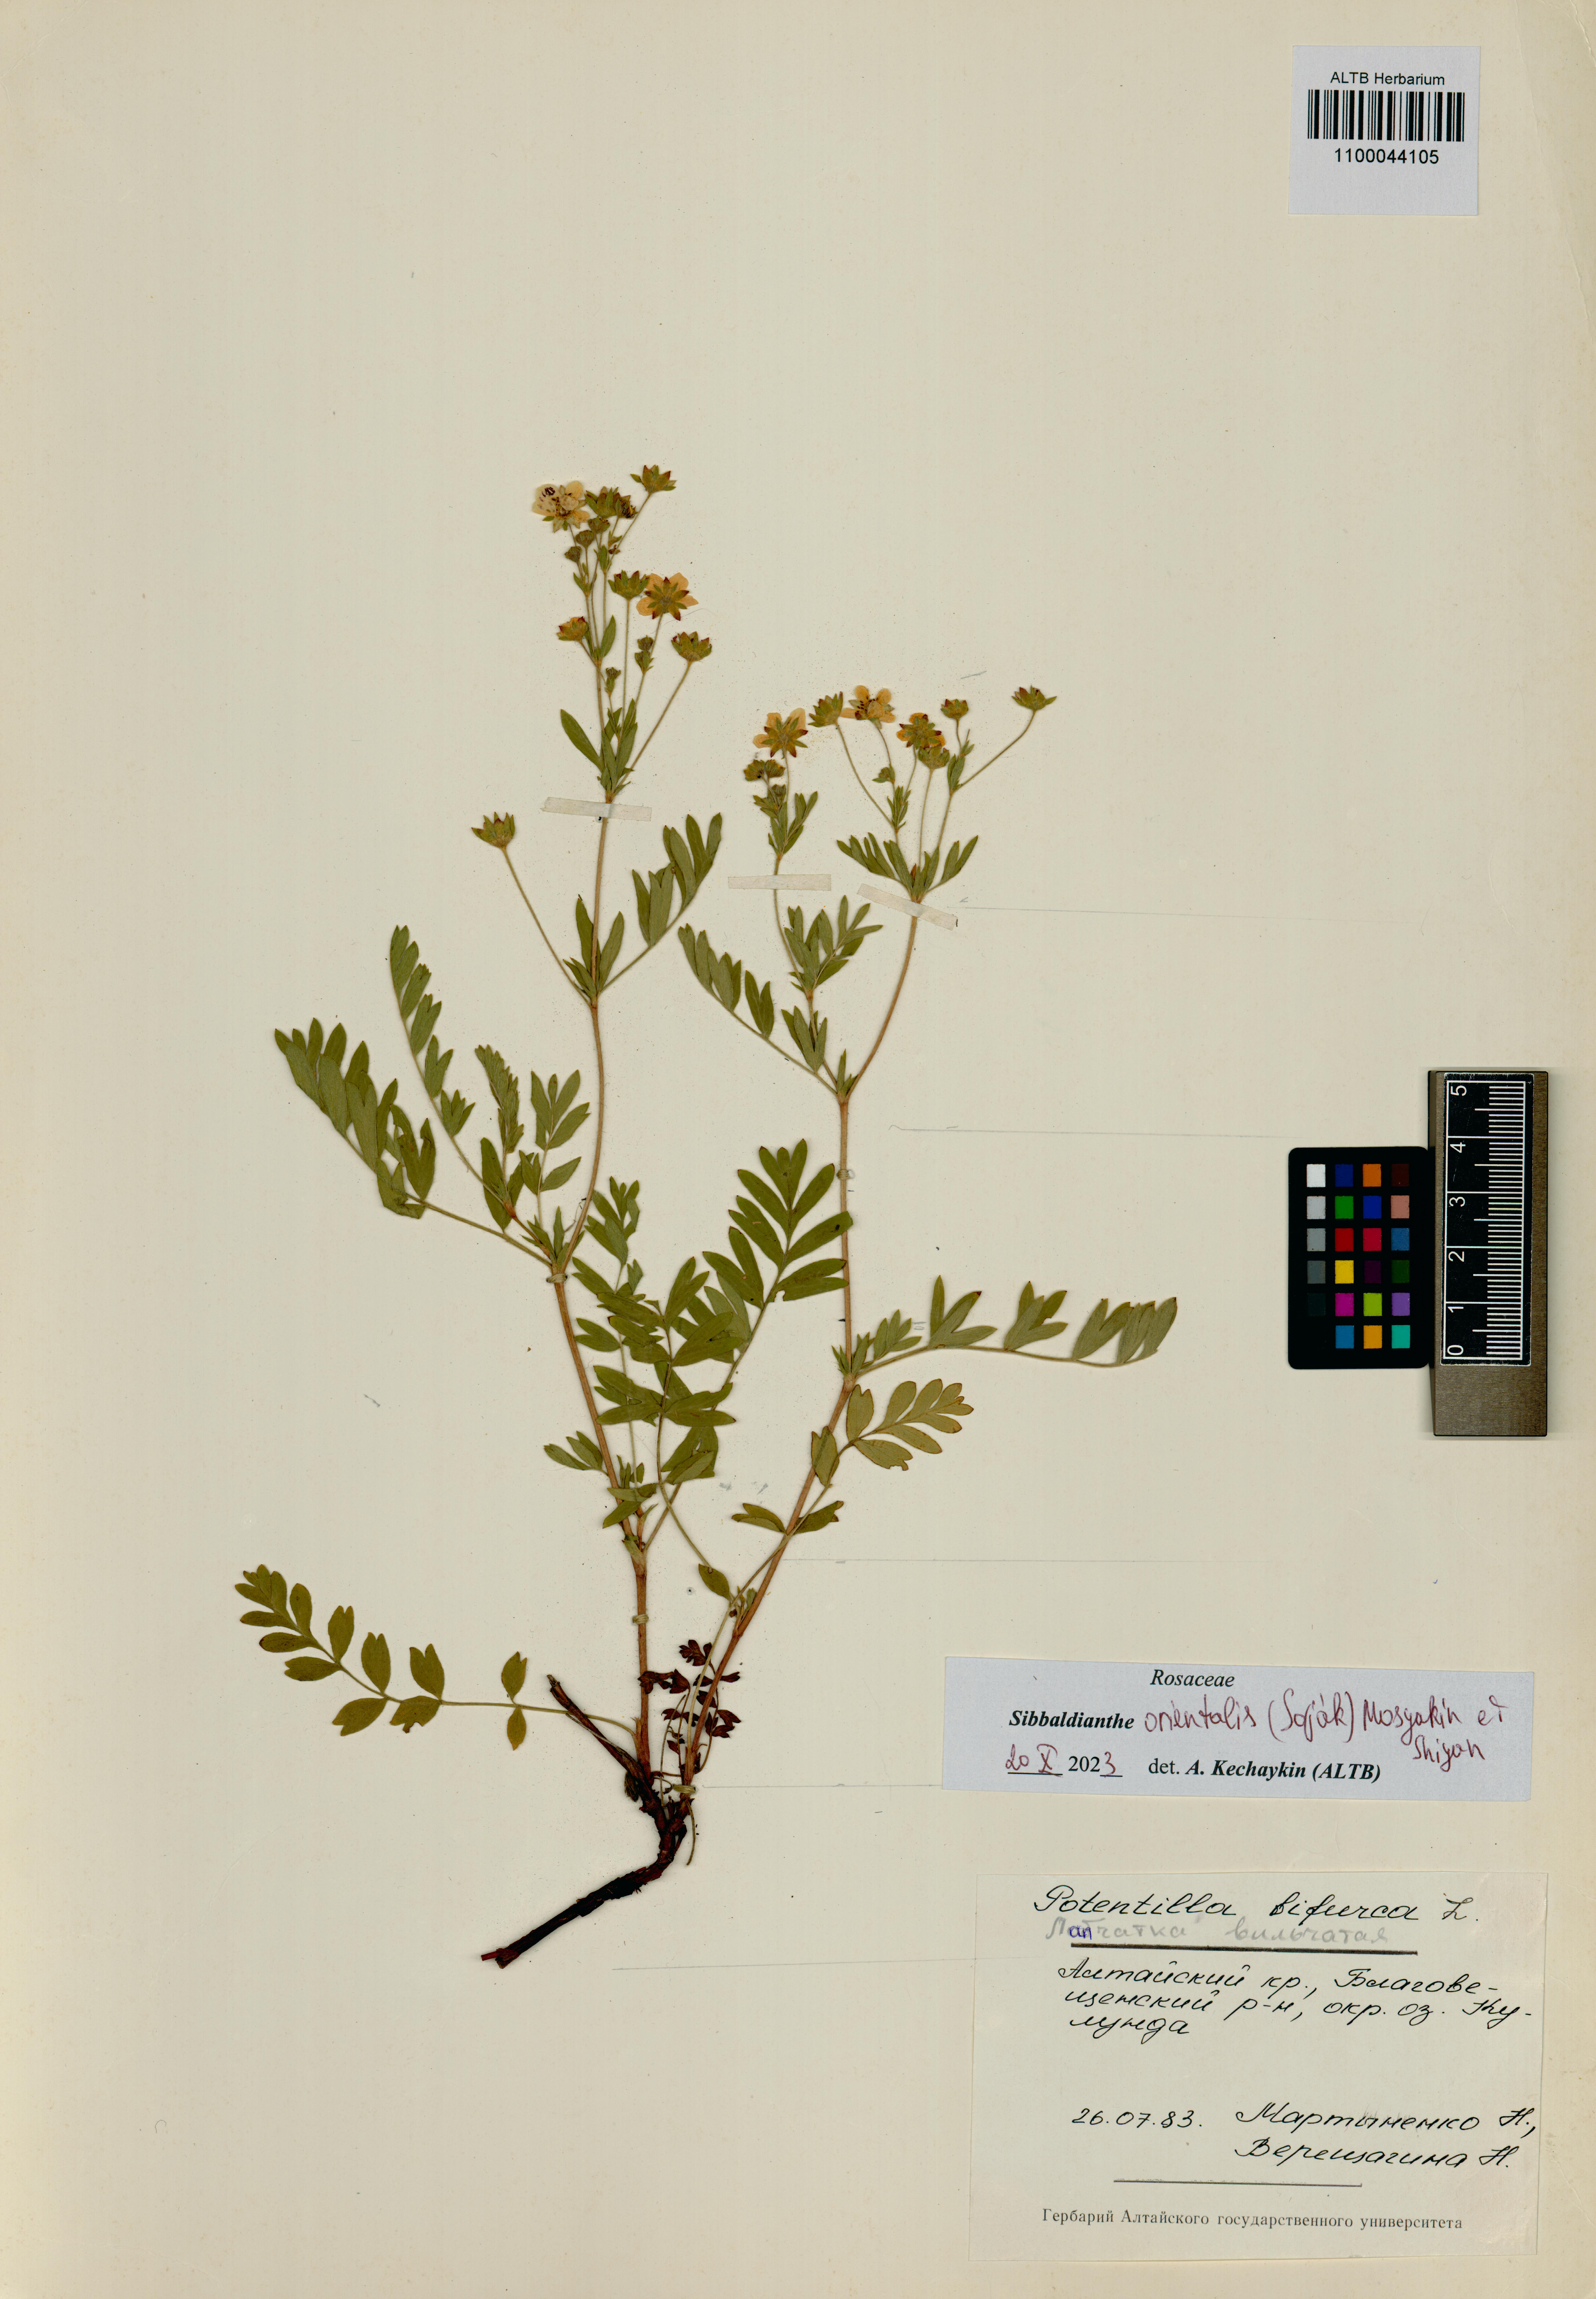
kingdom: Plantae
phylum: Tracheophyta
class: Magnoliopsida
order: Rosales
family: Rosaceae
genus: Sibbaldianthe
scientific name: Sibbaldianthe orientalis
